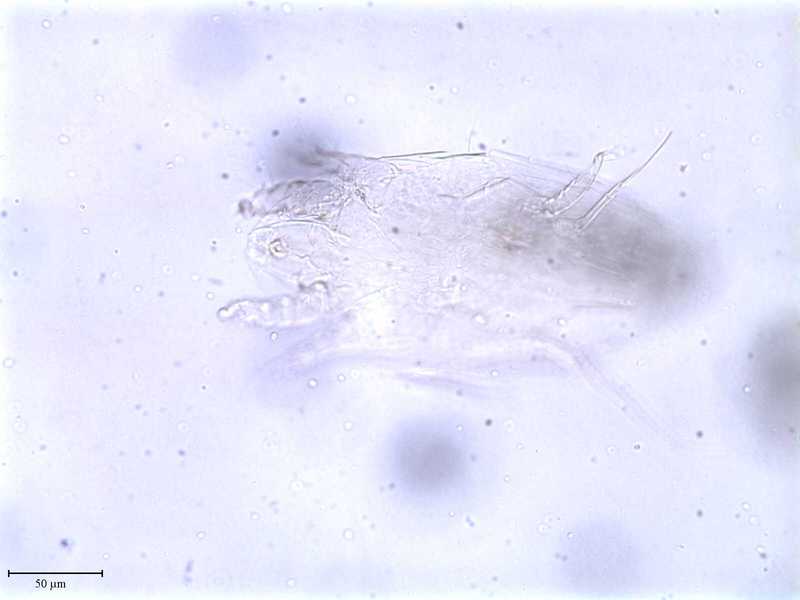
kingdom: Animalia
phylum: Arthropoda
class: Arachnida
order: Trombidiformes
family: Tarsonemidae
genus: Pseudotarsonemoides
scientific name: Pseudotarsonemoides eccoptogasteris
